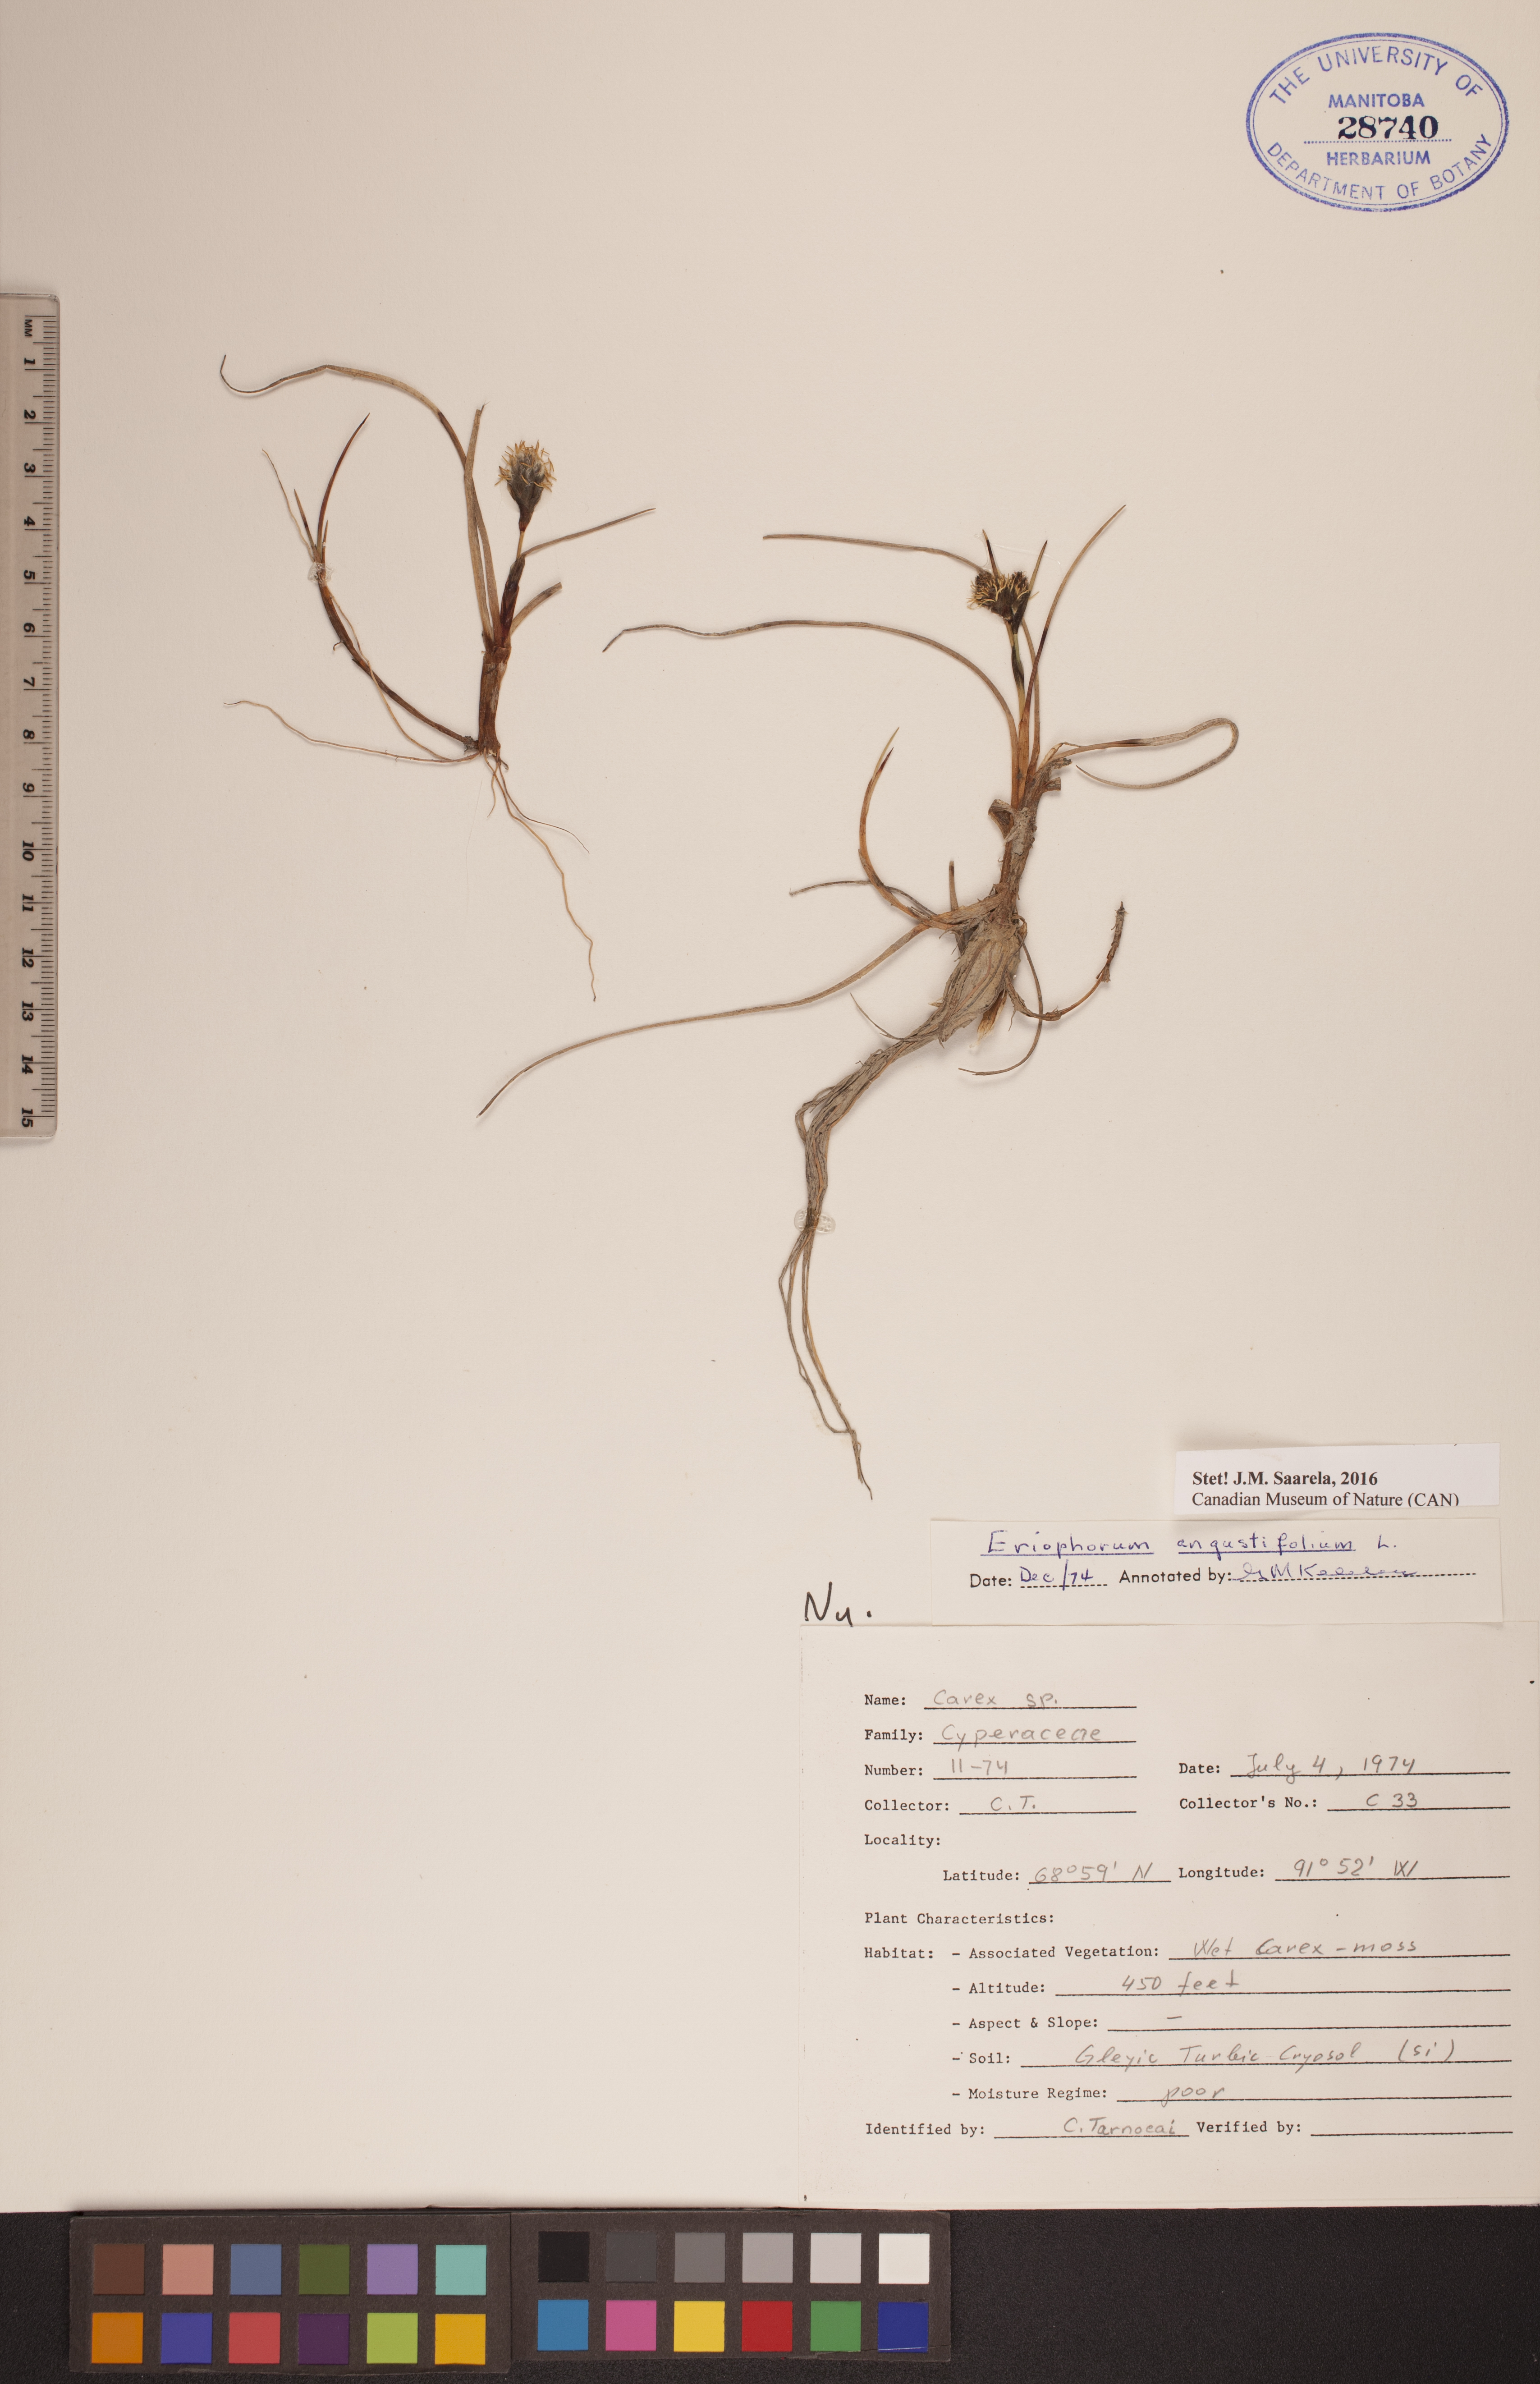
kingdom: Plantae
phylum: Tracheophyta
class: Liliopsida
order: Poales
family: Cyperaceae
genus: Eriophorum
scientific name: Eriophorum angustifolium
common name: Common cottongrass
